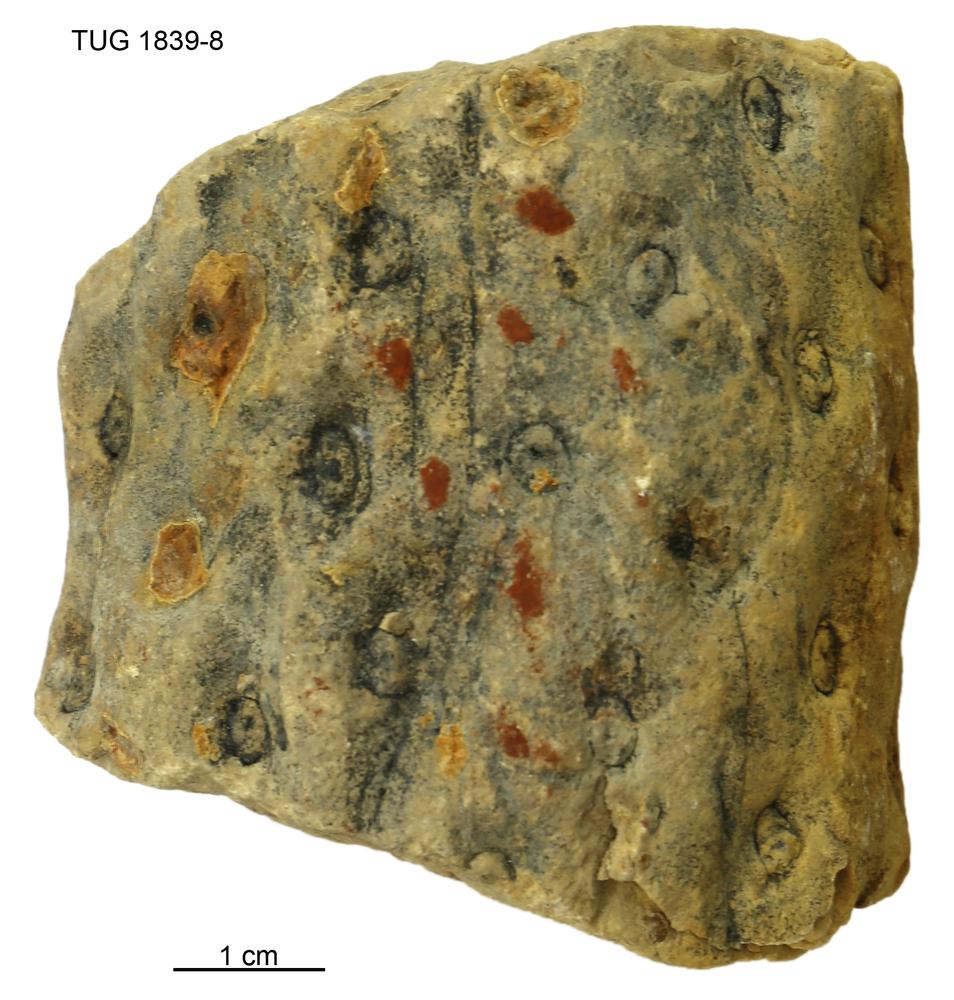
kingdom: Plantae
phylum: Tracheophyta
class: Lycopodiopsida
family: Lepidodendraceae
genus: Stigmaria
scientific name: Stigmaria
